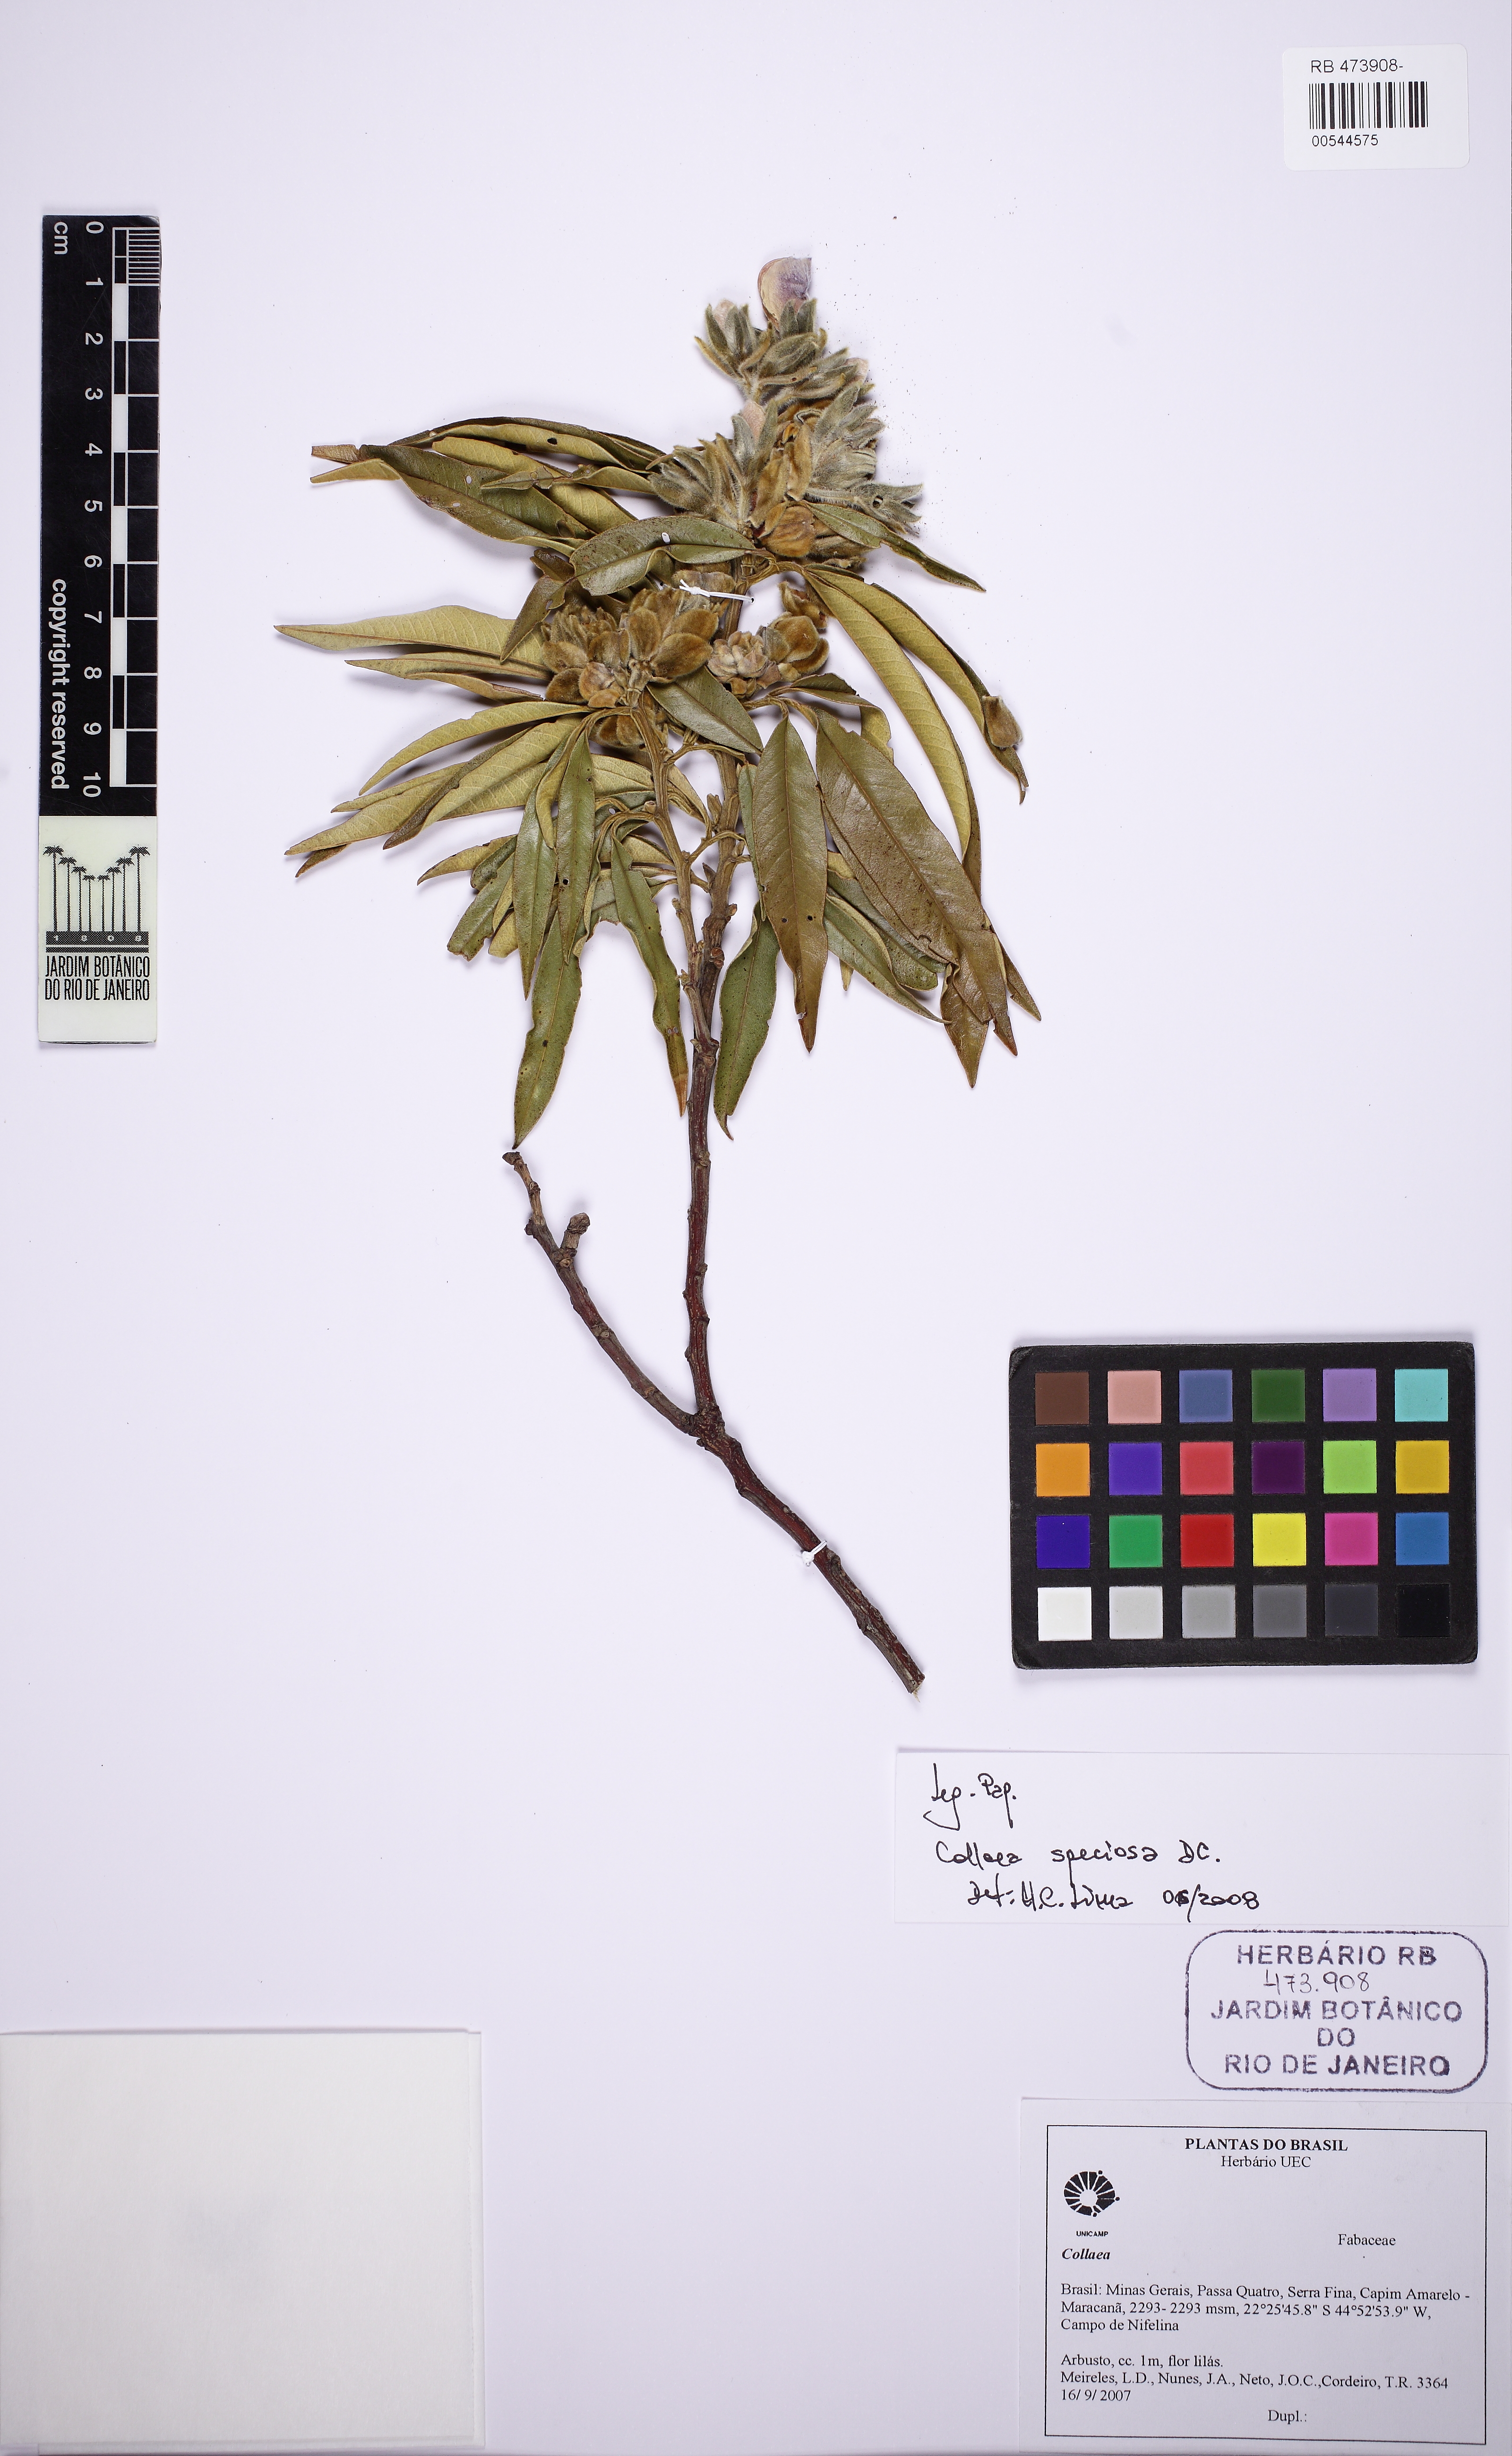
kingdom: Plantae
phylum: Tracheophyta
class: Magnoliopsida
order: Fabales
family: Fabaceae
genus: Collaea
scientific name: Collaea speciosa
